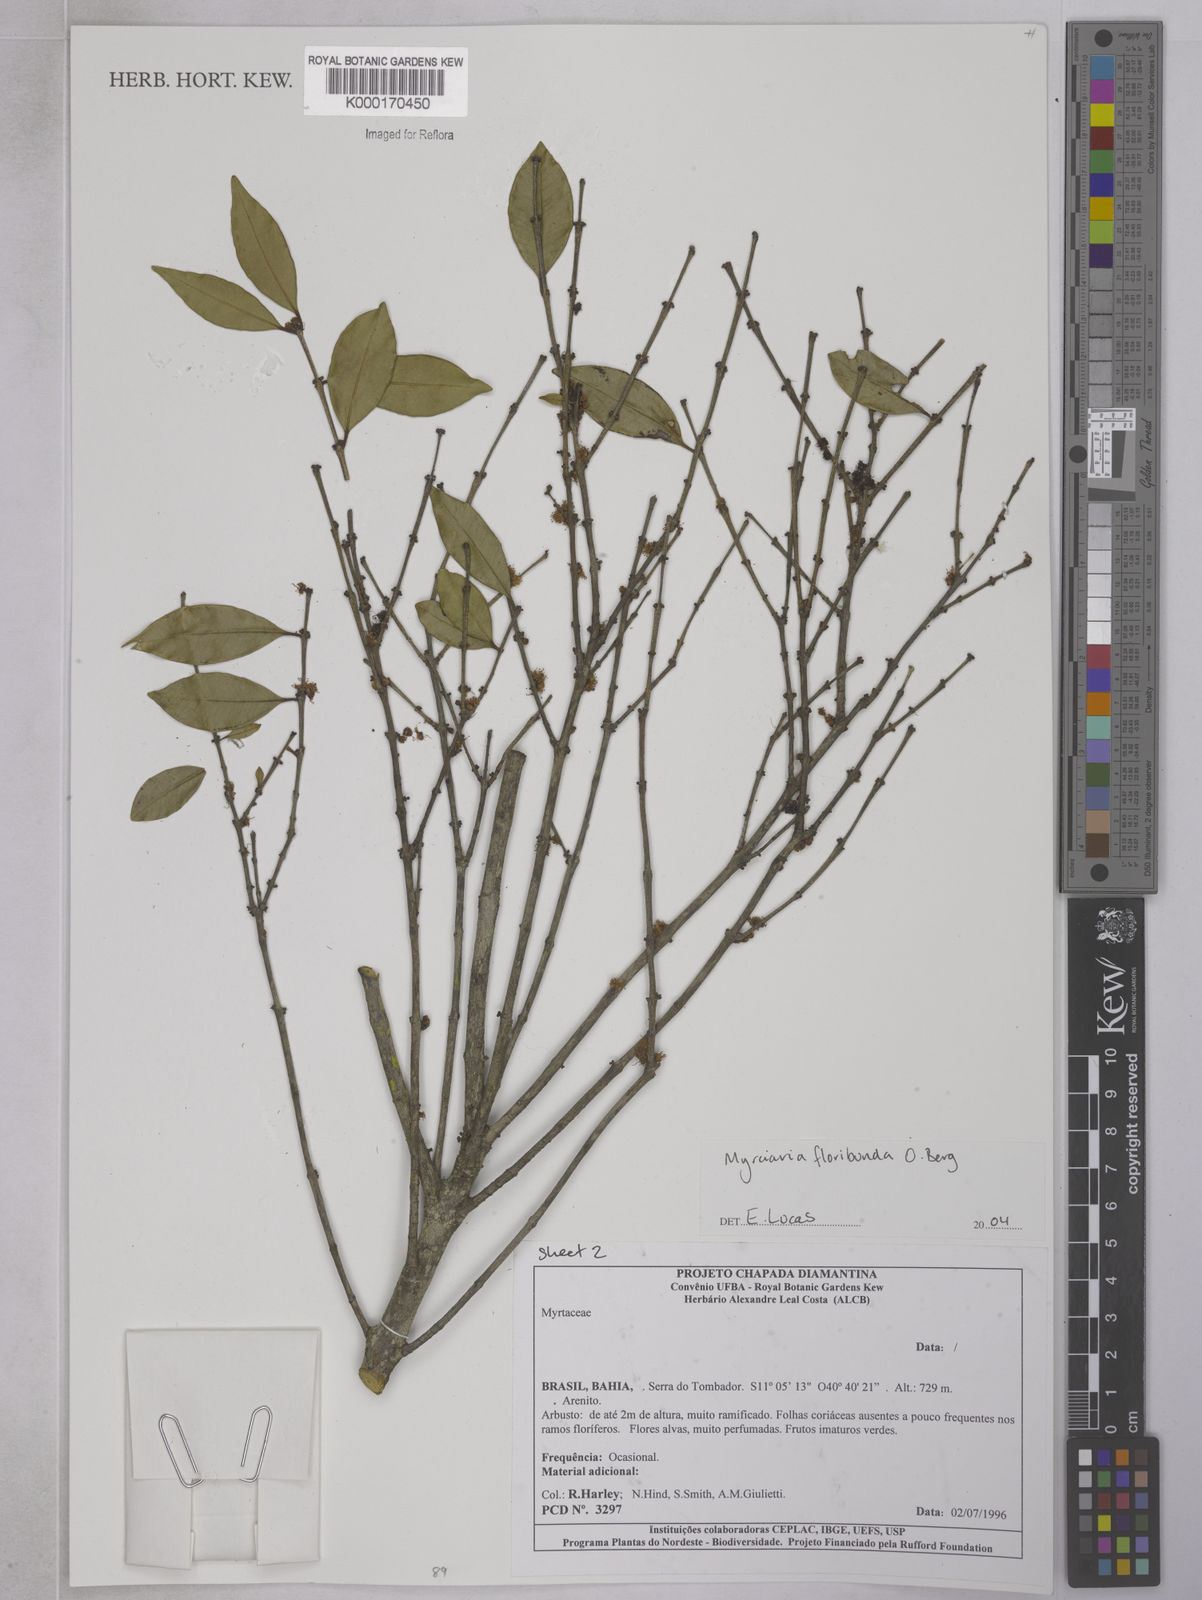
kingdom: Plantae
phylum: Tracheophyta
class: Magnoliopsida
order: Myrtales
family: Myrtaceae
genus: Myrciaria
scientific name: Myrciaria floribunda
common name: Guavaberry
